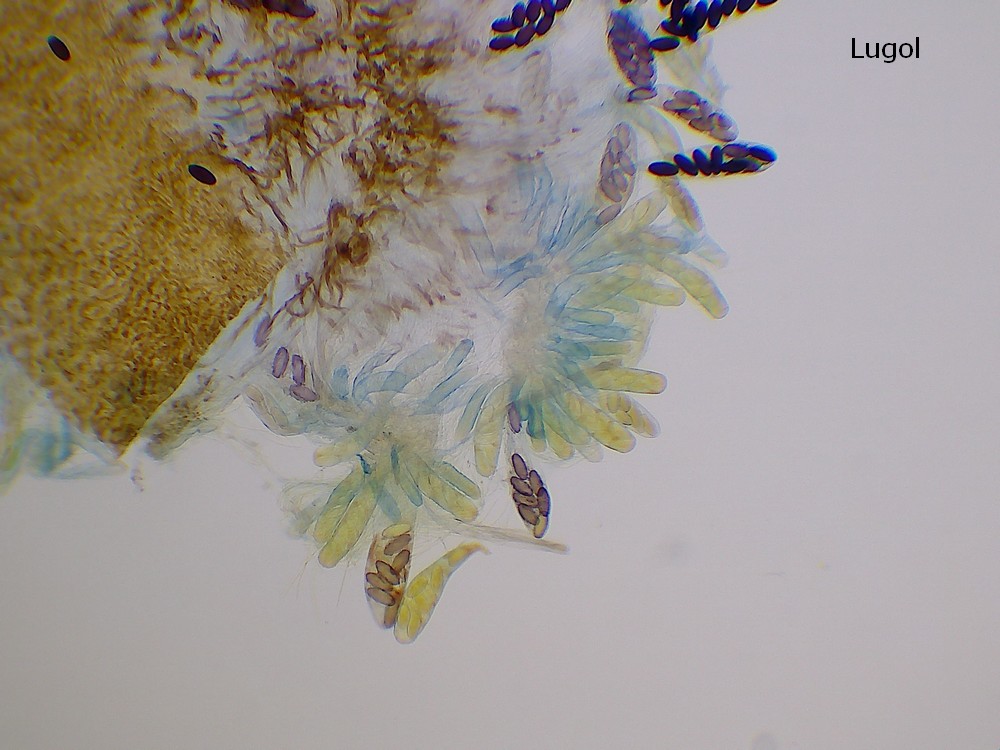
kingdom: Fungi
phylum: Ascomycota
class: Pezizomycetes
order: Pezizales
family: Ascobolaceae
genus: Ascobolus
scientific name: Ascobolus
